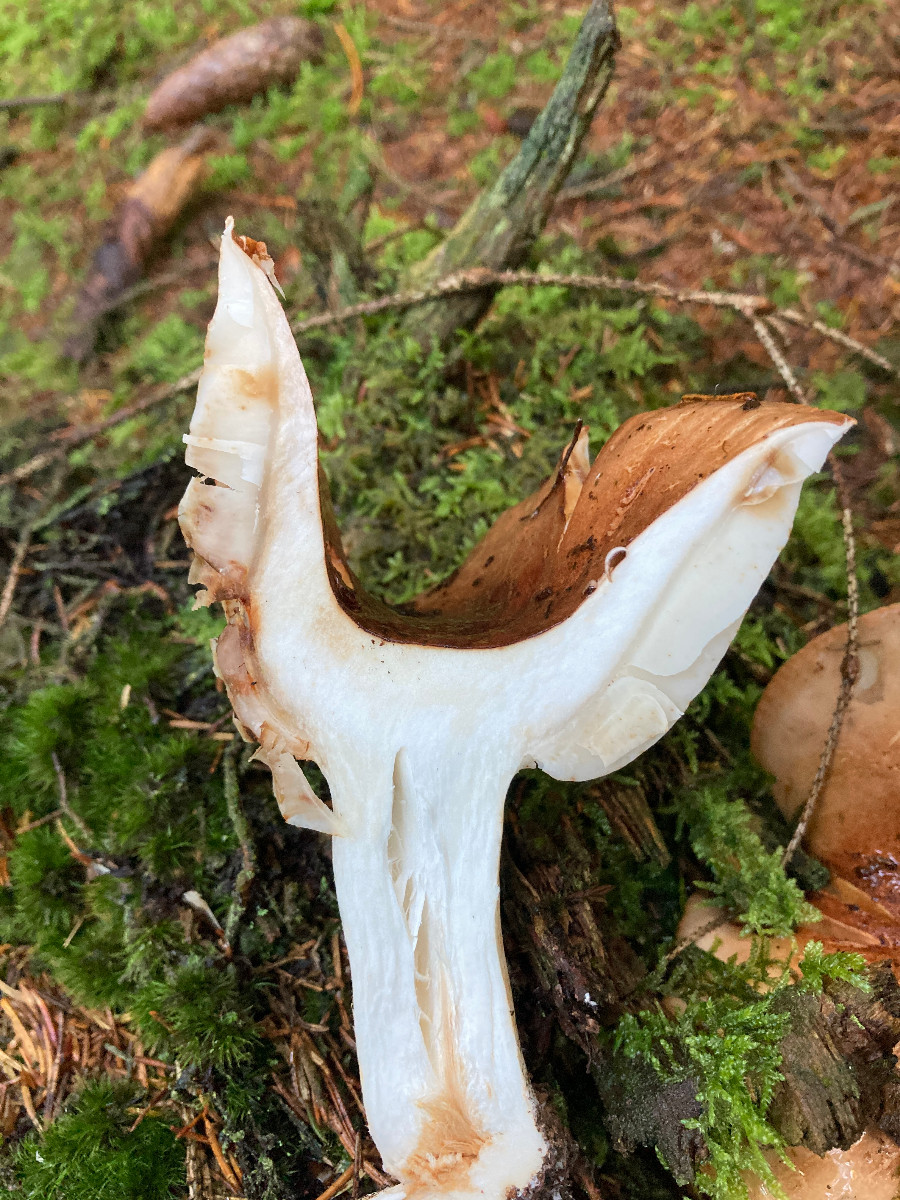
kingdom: Fungi
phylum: Basidiomycota
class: Agaricomycetes
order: Agaricales
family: Tricholomataceae
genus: Tricholoma
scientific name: Tricholoma stans
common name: stolt ridderhat
